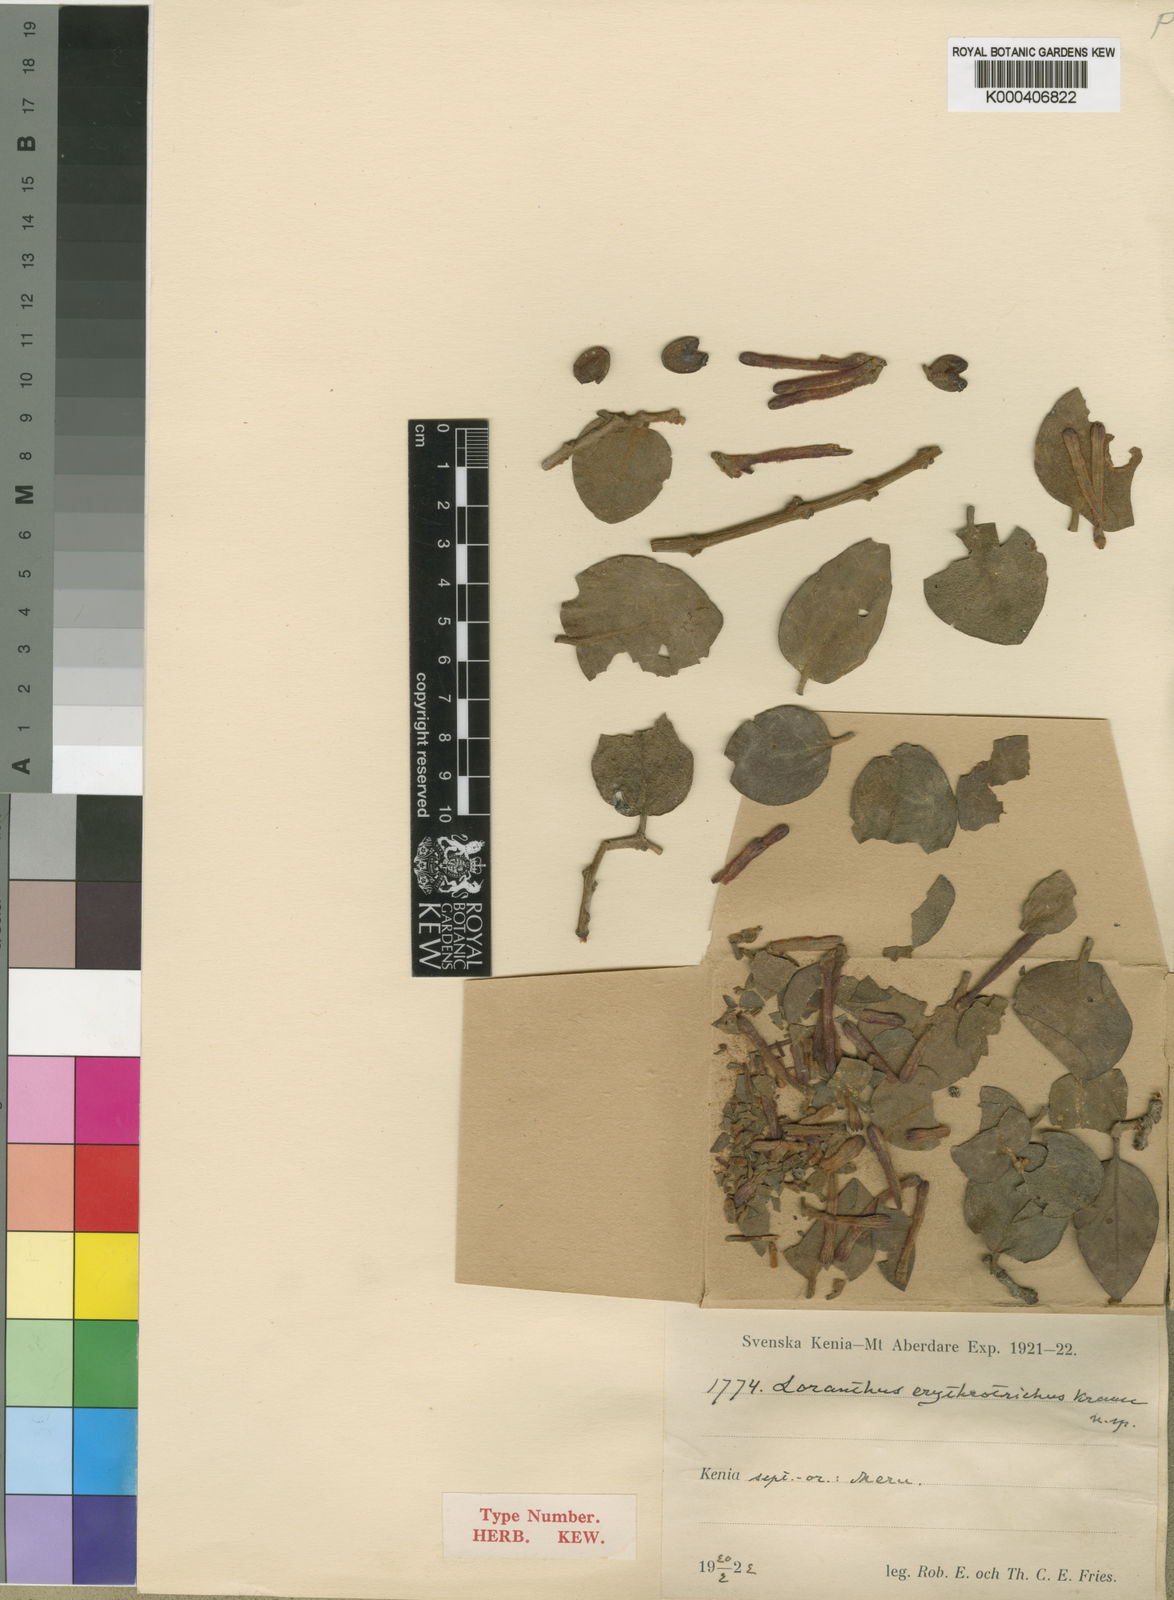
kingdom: Plantae
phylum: Tracheophyta
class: Magnoliopsida
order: Santalales
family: Loranthaceae
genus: Agelanthus
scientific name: Agelanthus musozensis
